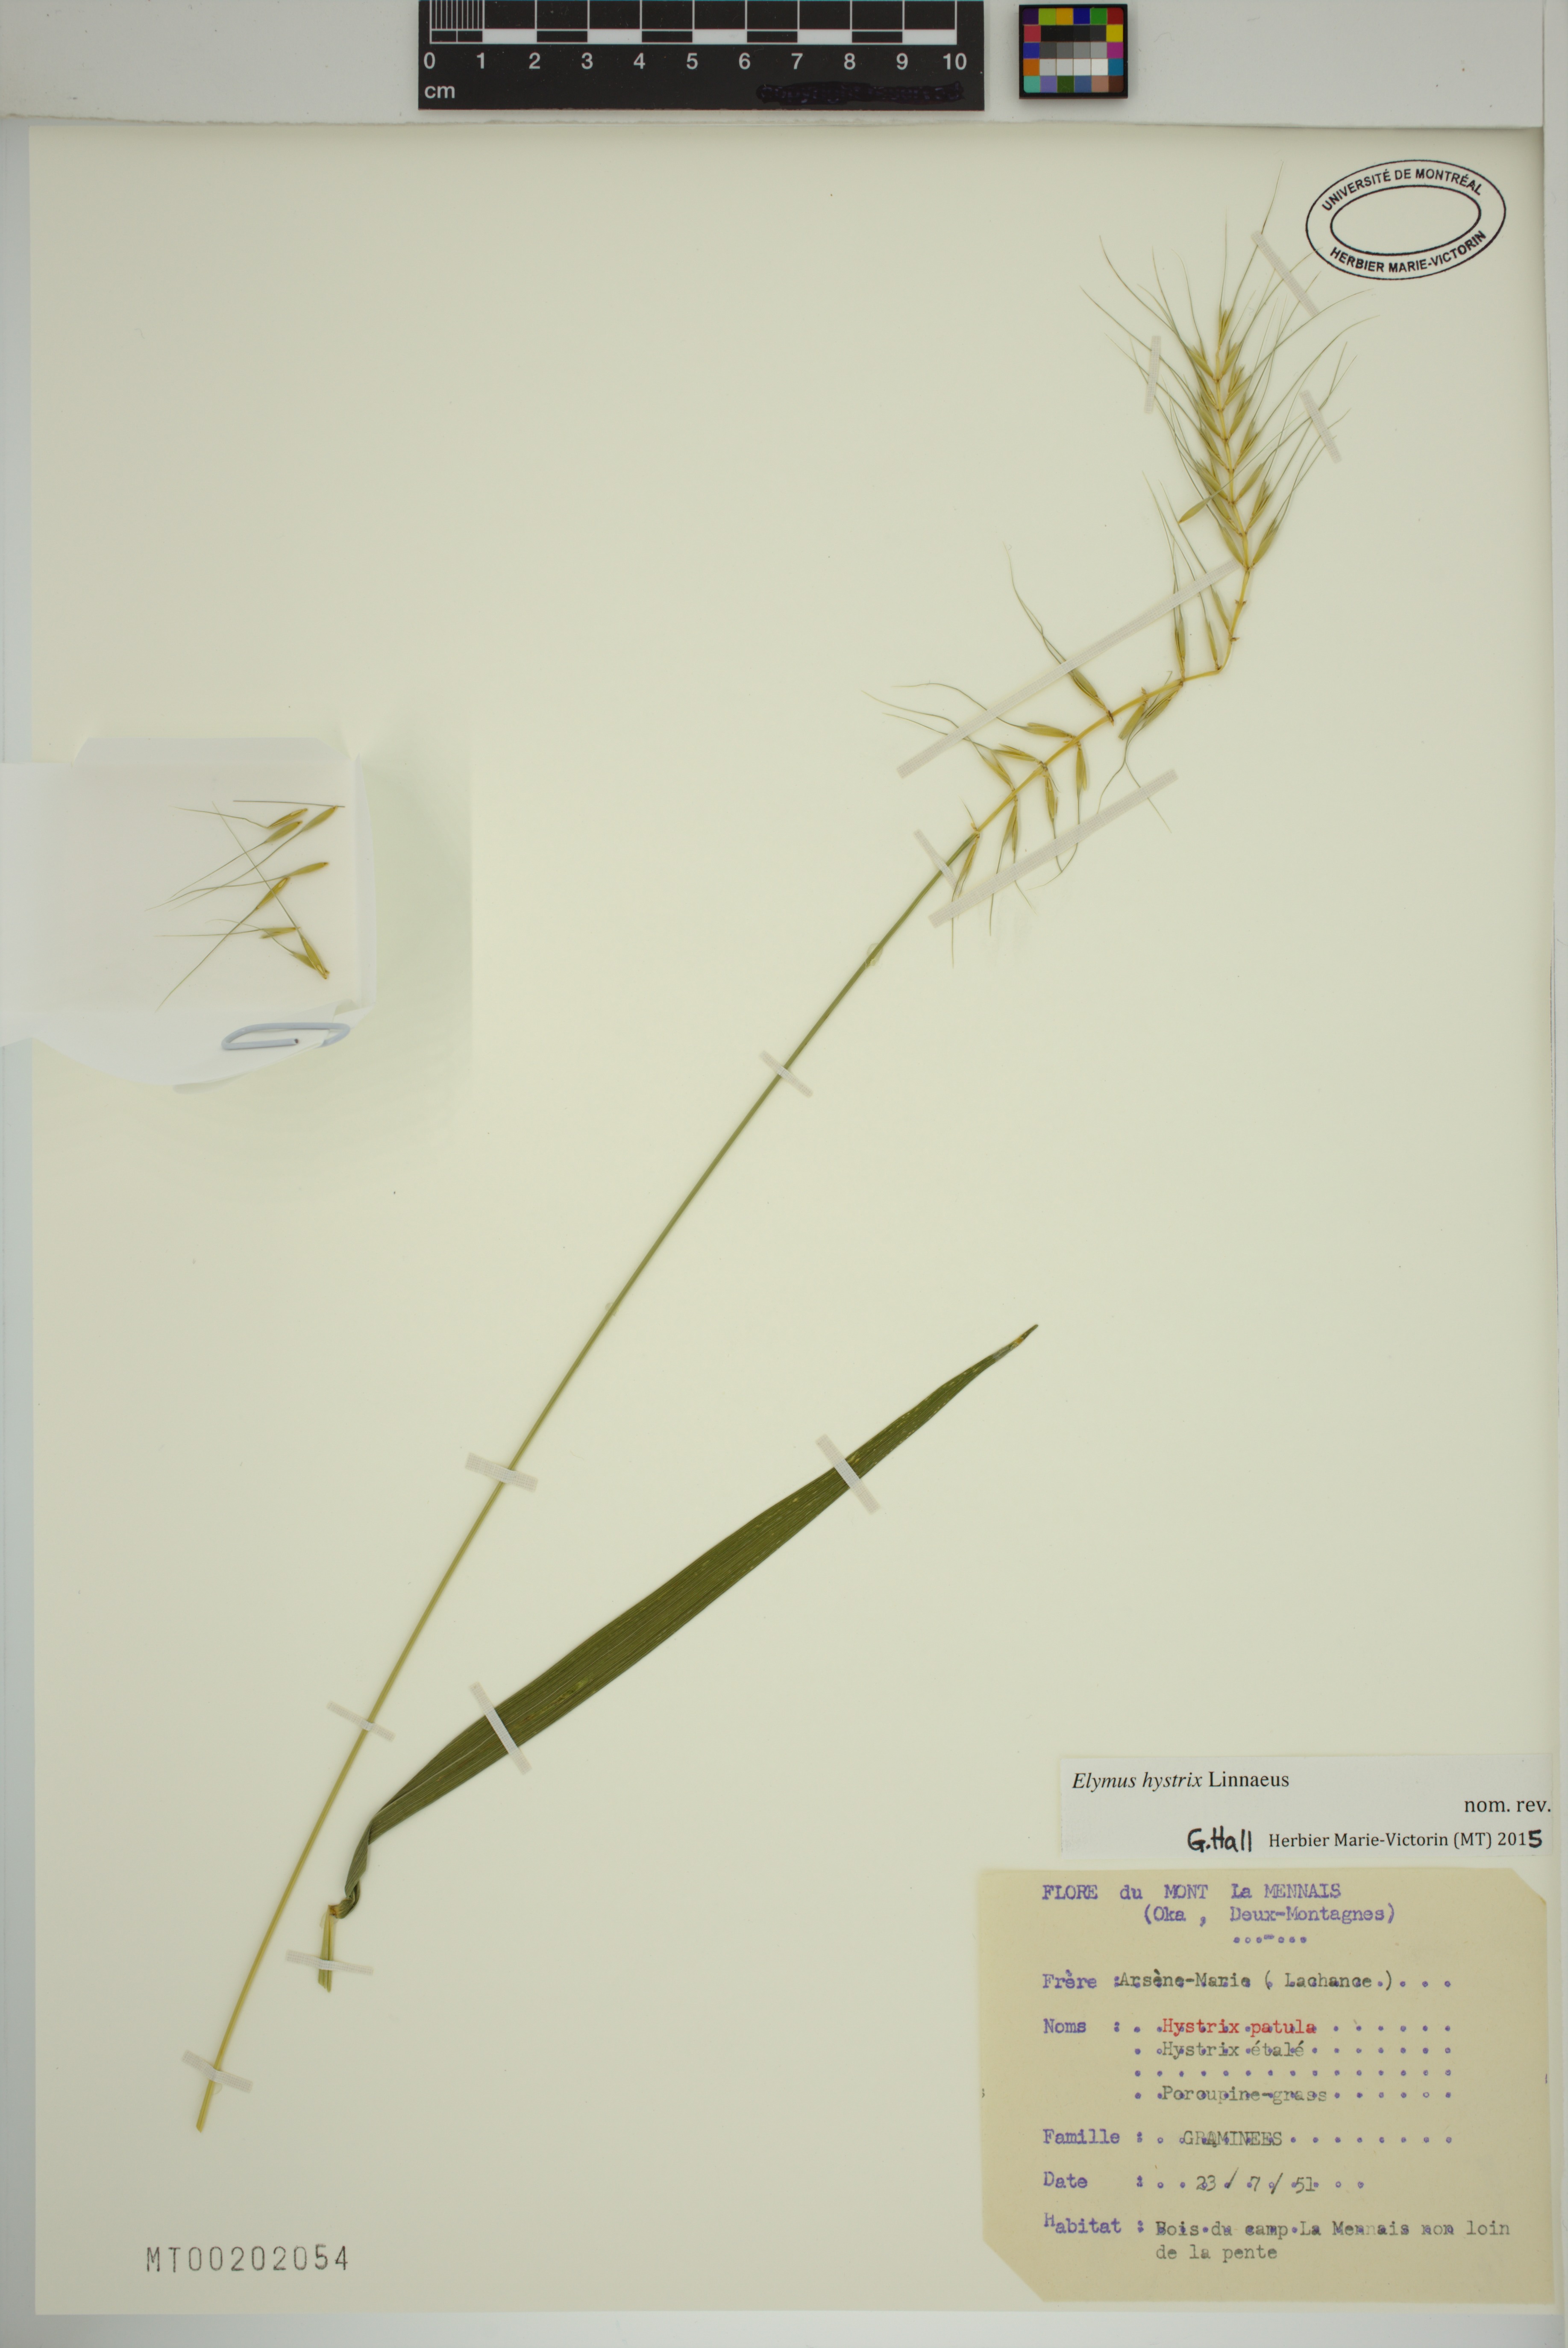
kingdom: Plantae
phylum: Tracheophyta
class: Liliopsida
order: Poales
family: Poaceae
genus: Elymus
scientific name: Elymus hystrix
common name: Bottlebrush grass
